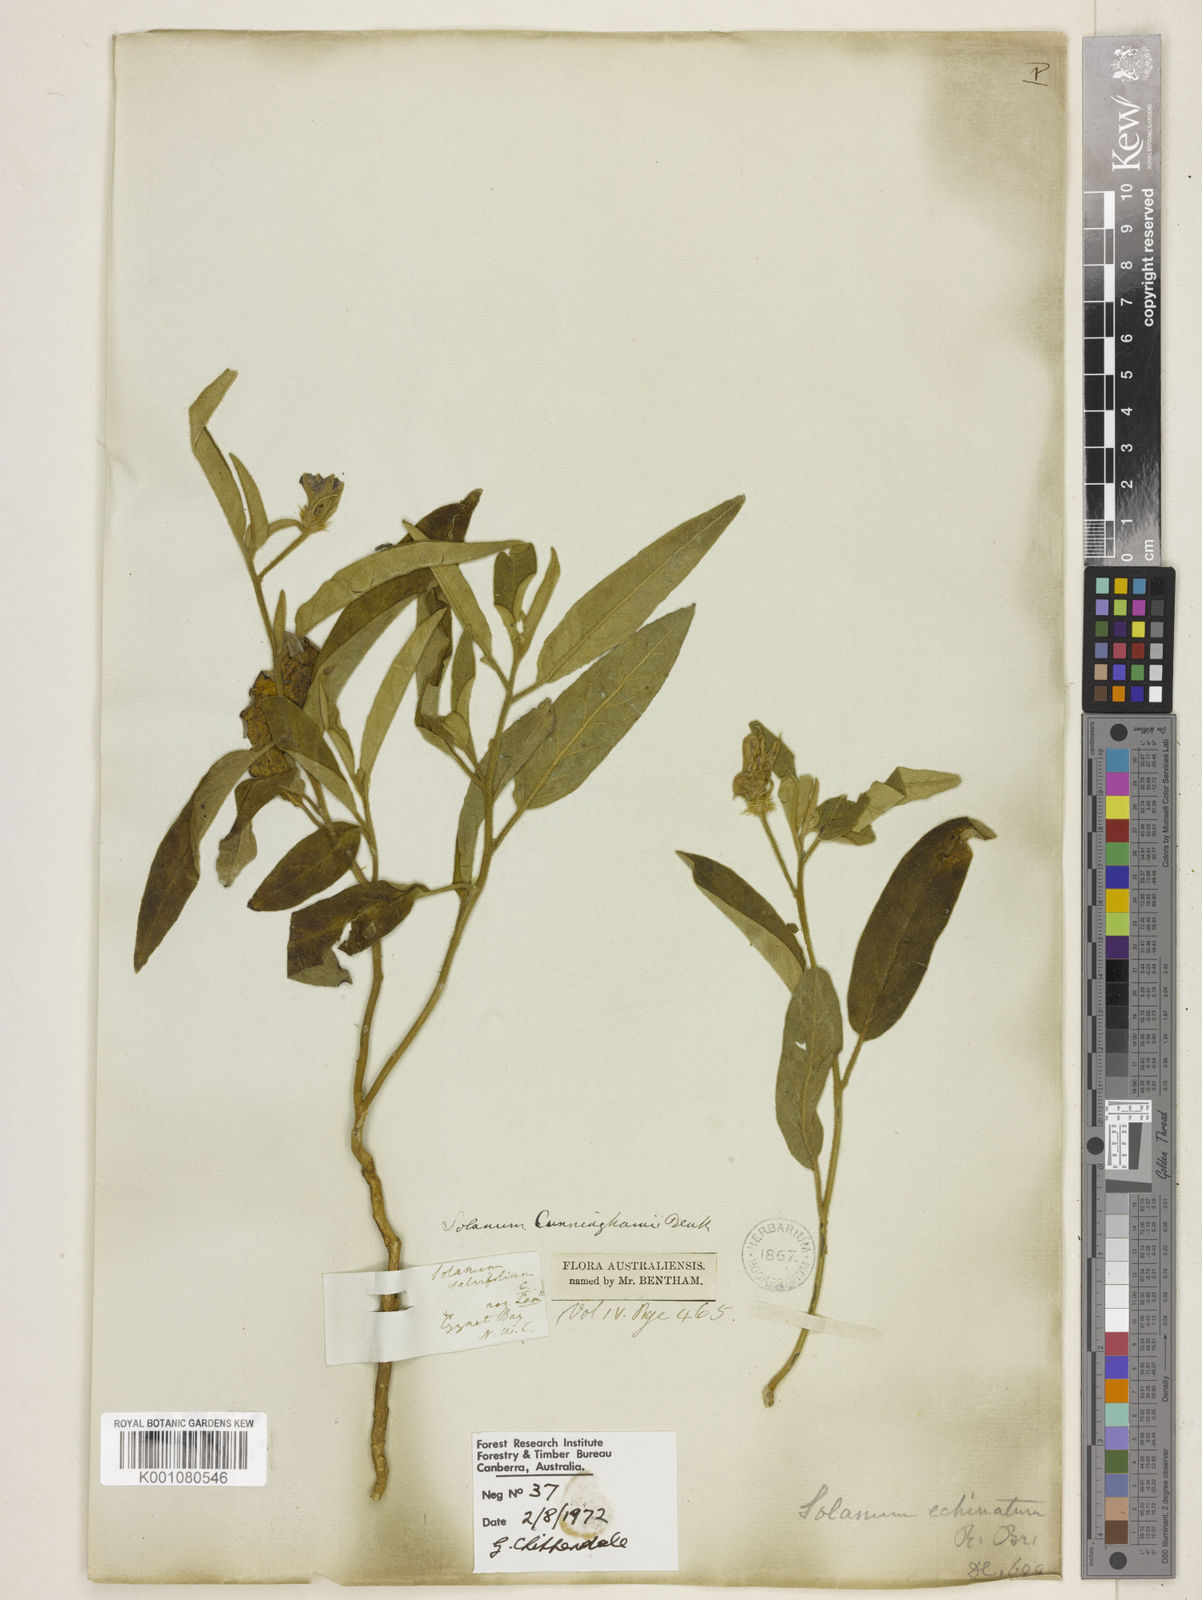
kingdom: Plantae
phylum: Tracheophyta
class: Magnoliopsida
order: Solanales
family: Solanaceae
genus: Solanum
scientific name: Solanum cunninghamii
